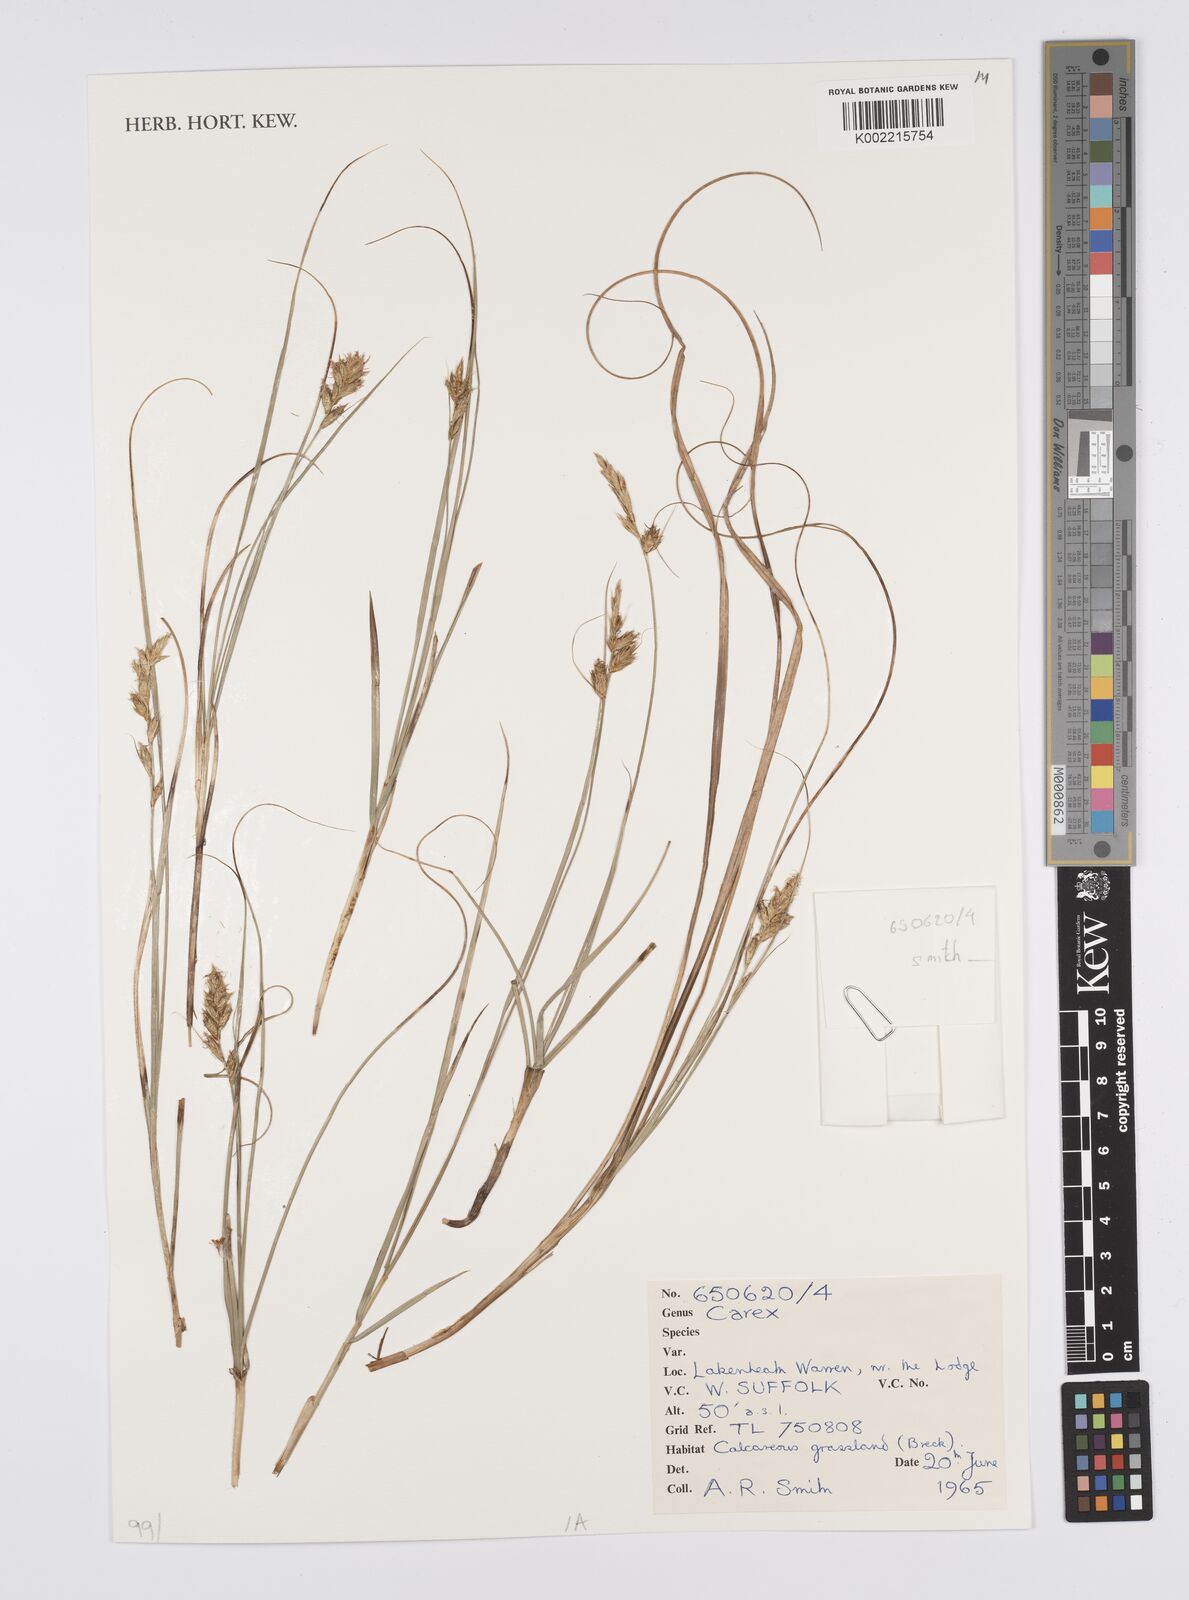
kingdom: Plantae
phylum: Tracheophyta
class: Liliopsida
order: Poales
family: Cyperaceae
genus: Carex
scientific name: Carex
